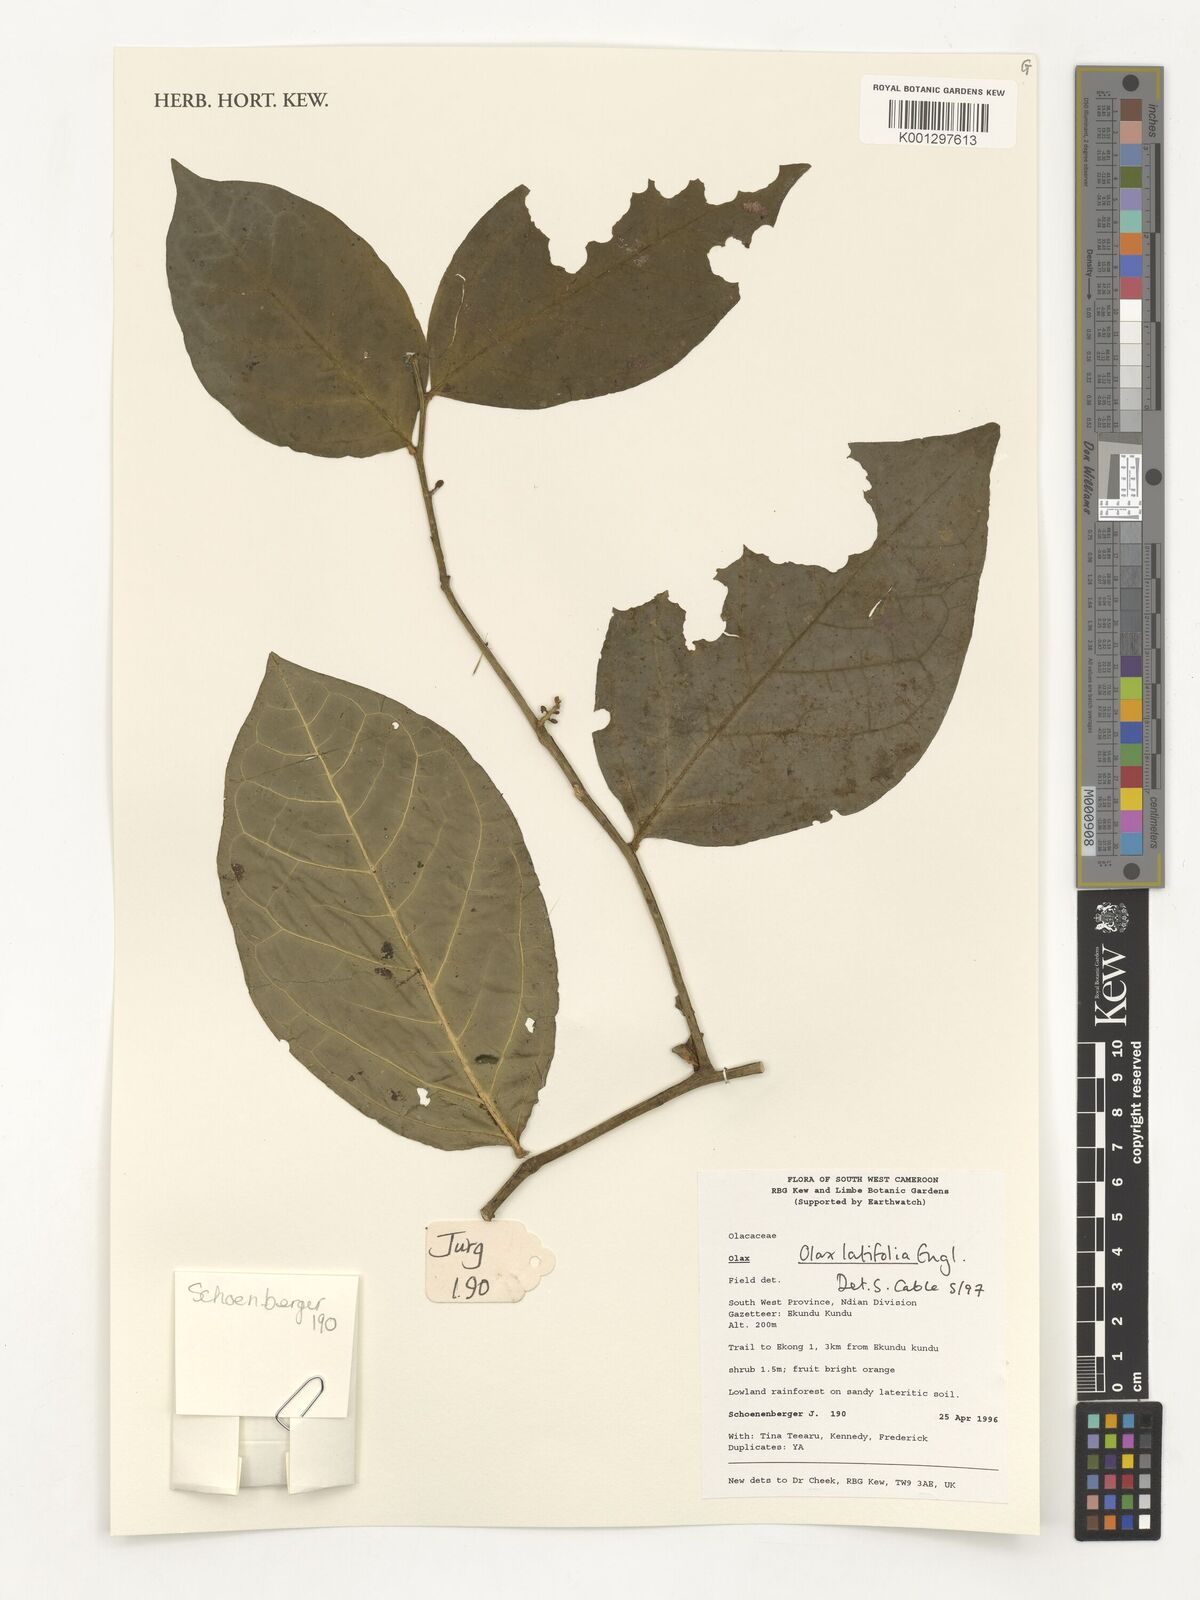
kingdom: Plantae
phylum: Tracheophyta
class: Magnoliopsida
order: Santalales
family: Olacaceae
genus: Olax
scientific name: Olax latifolia
